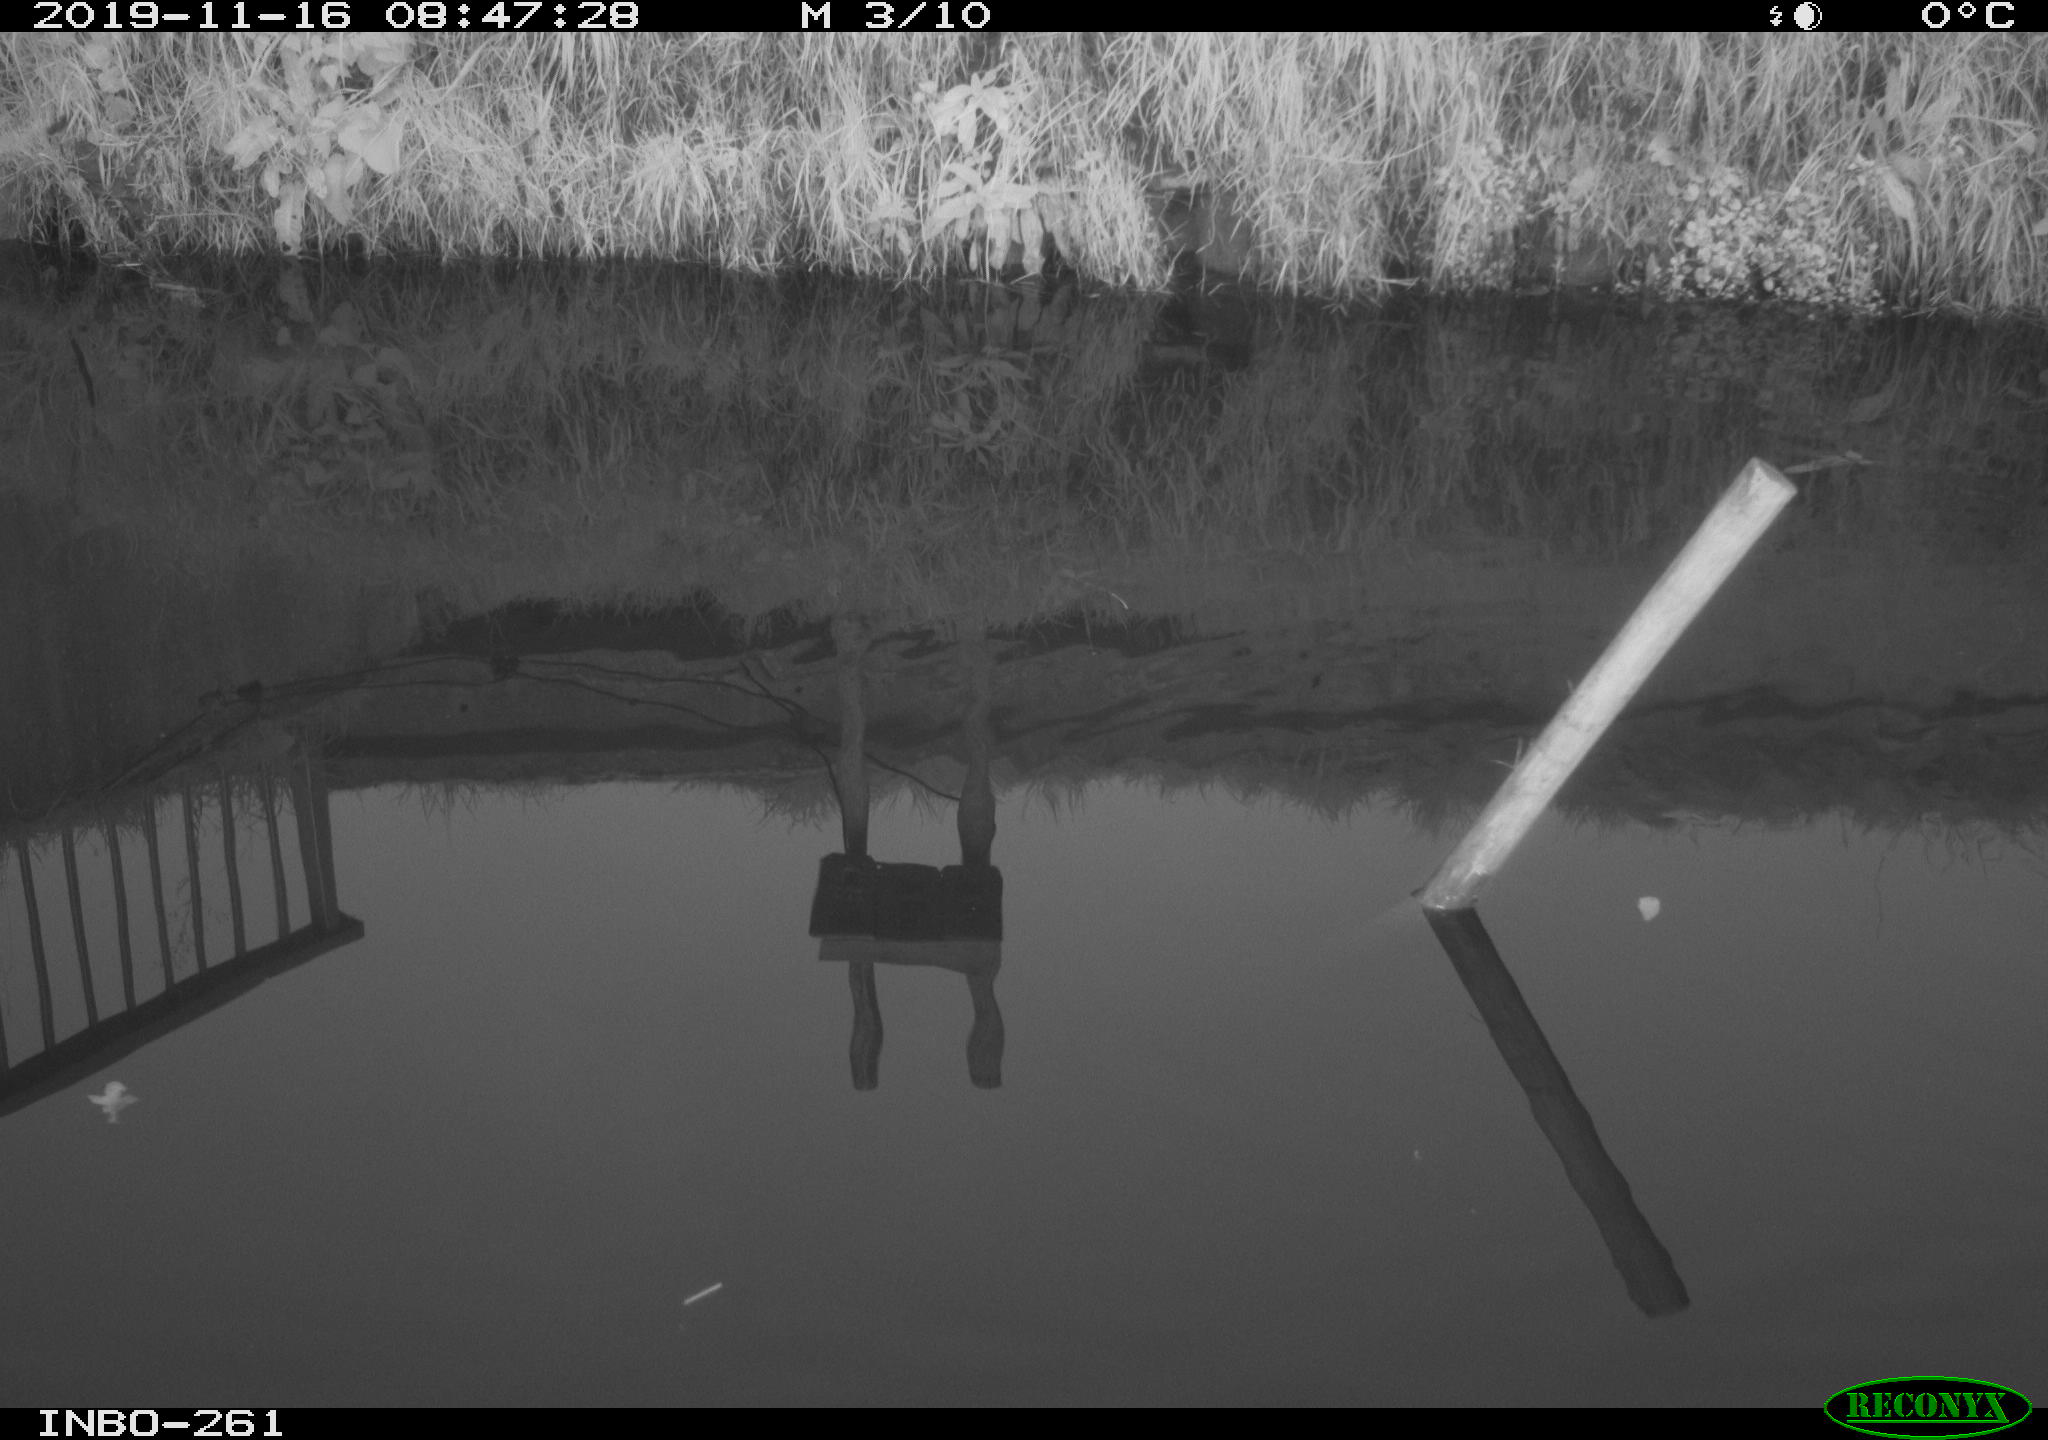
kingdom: Animalia
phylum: Chordata
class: Aves
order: Gruiformes
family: Rallidae
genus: Gallinula
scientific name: Gallinula chloropus
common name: Common moorhen
